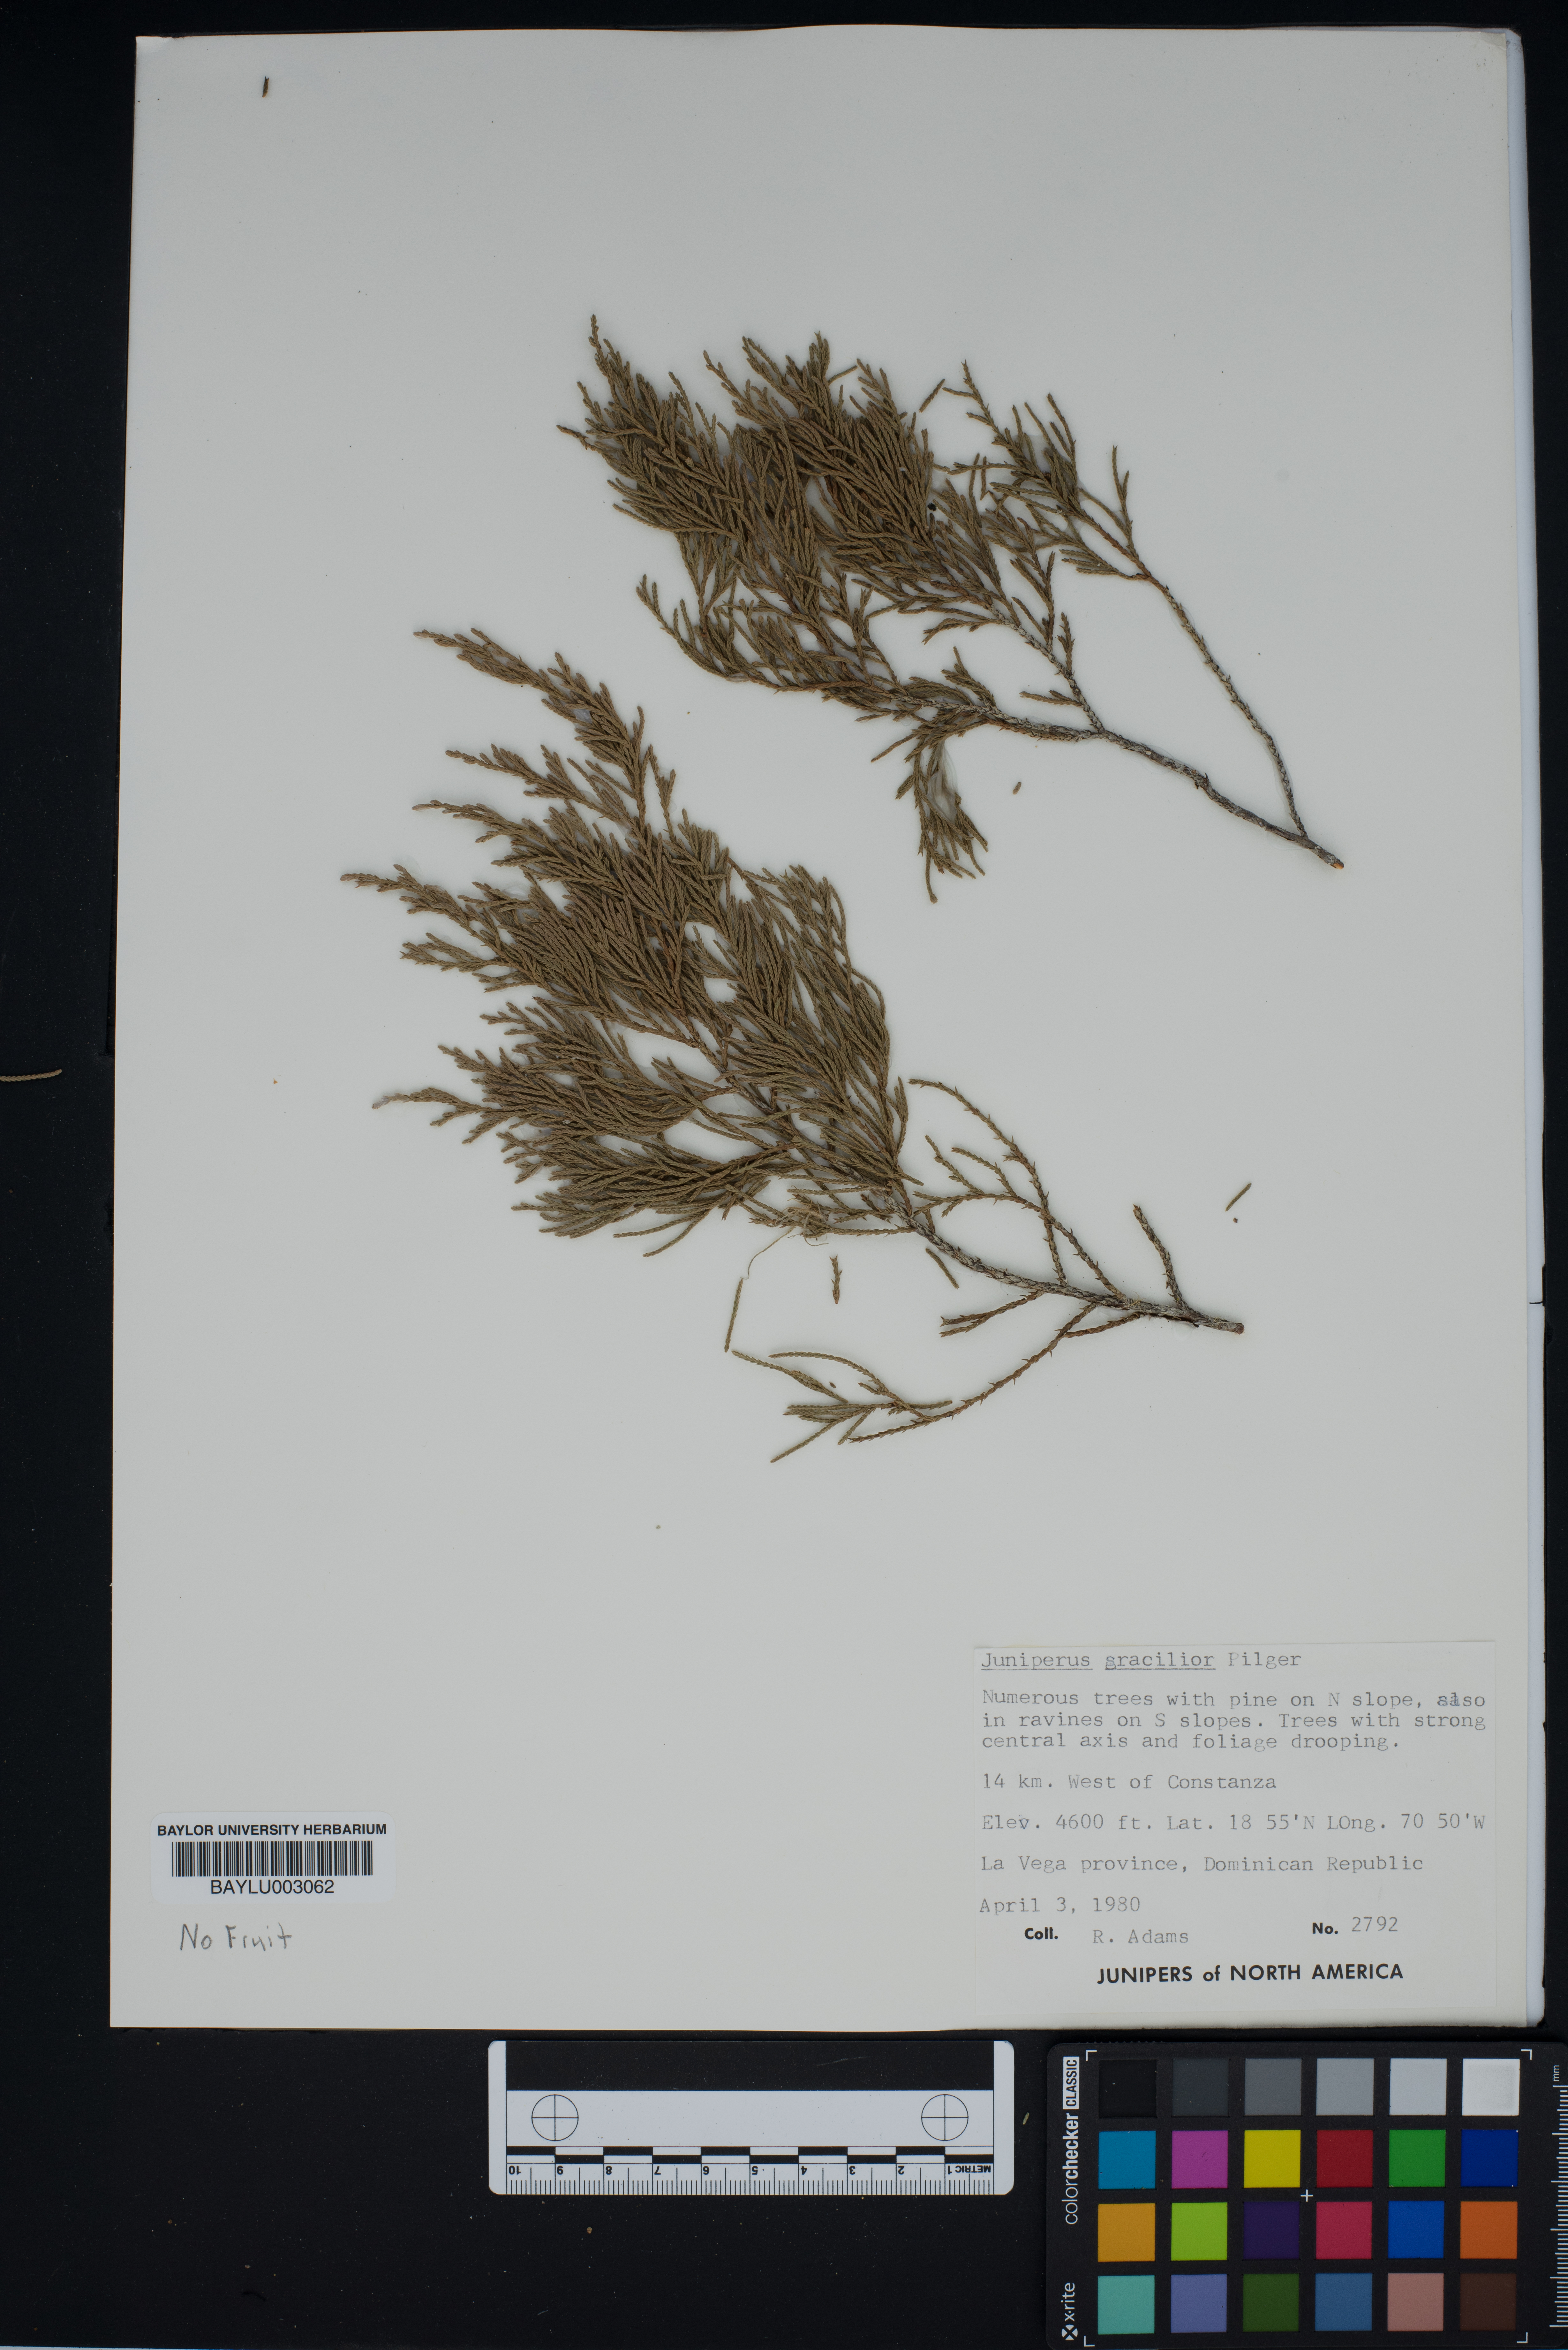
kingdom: Plantae
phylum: Tracheophyta
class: Pinopsida
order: Pinales
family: Cupressaceae
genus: Juniperus
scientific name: Juniperus gracilior
